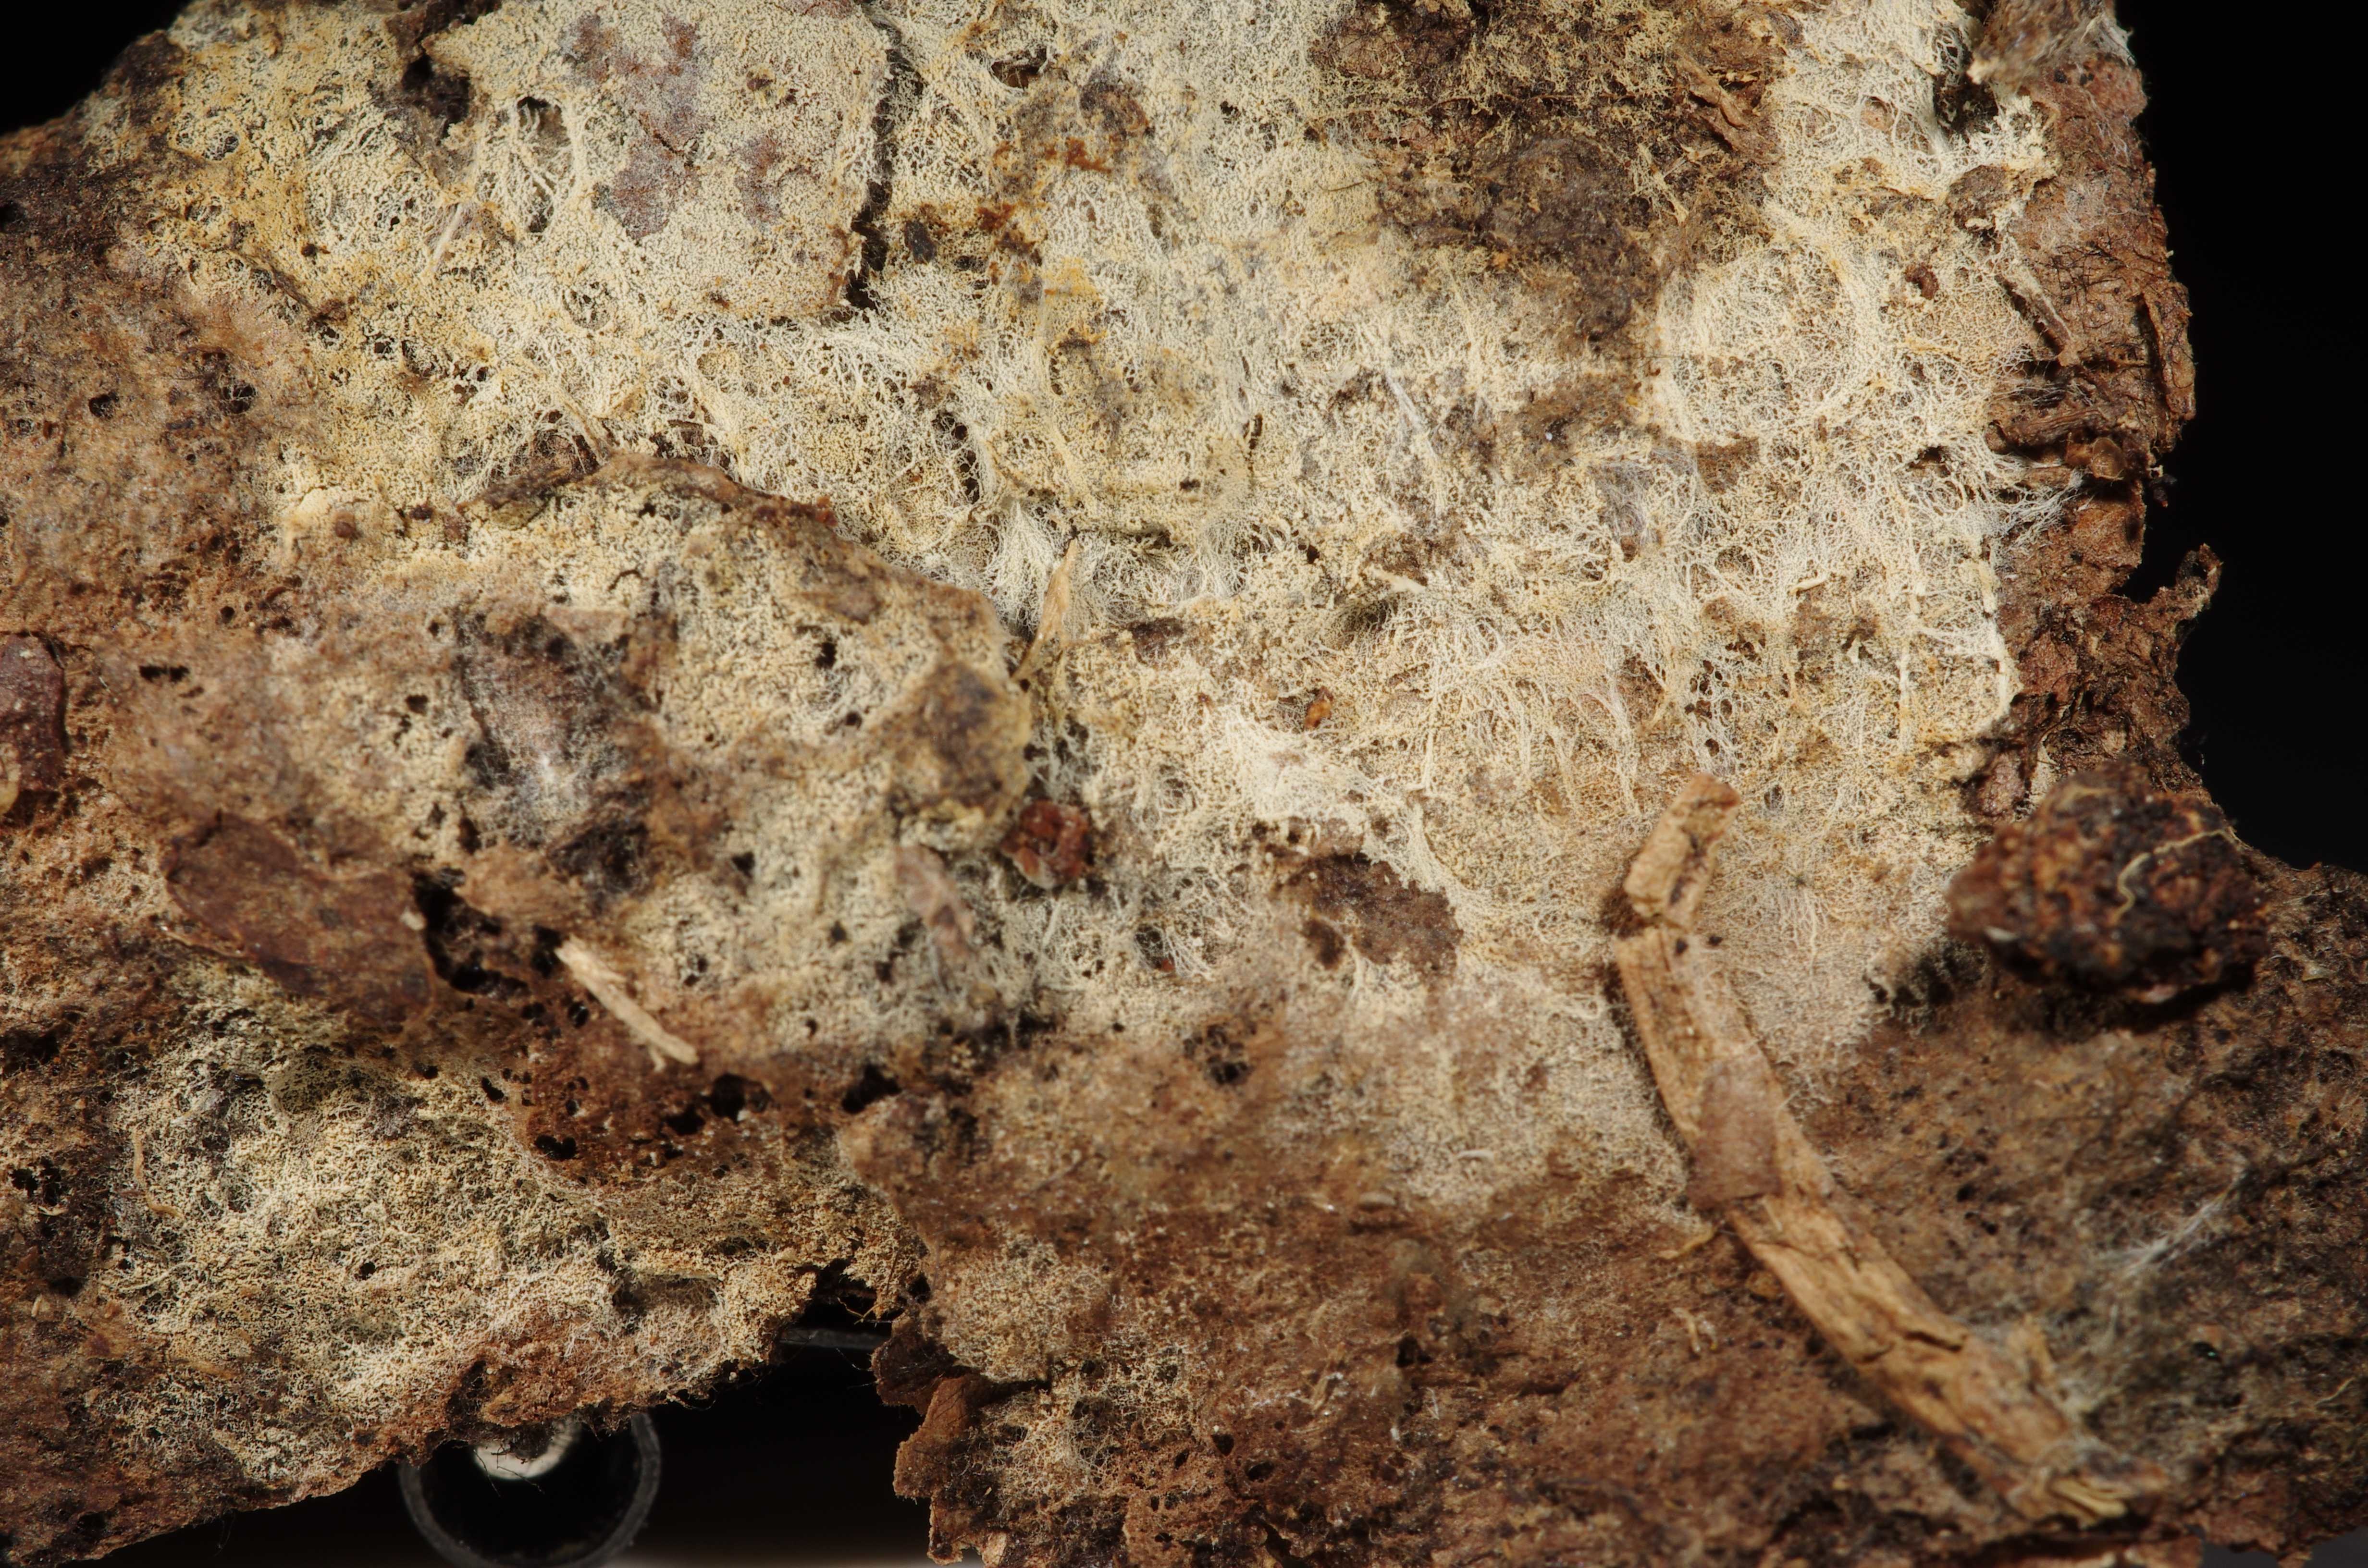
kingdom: Fungi
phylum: Basidiomycota
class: Agaricomycetes
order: Trechisporales
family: Sistotremataceae
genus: Trechispora
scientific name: Trechispora stellulata
